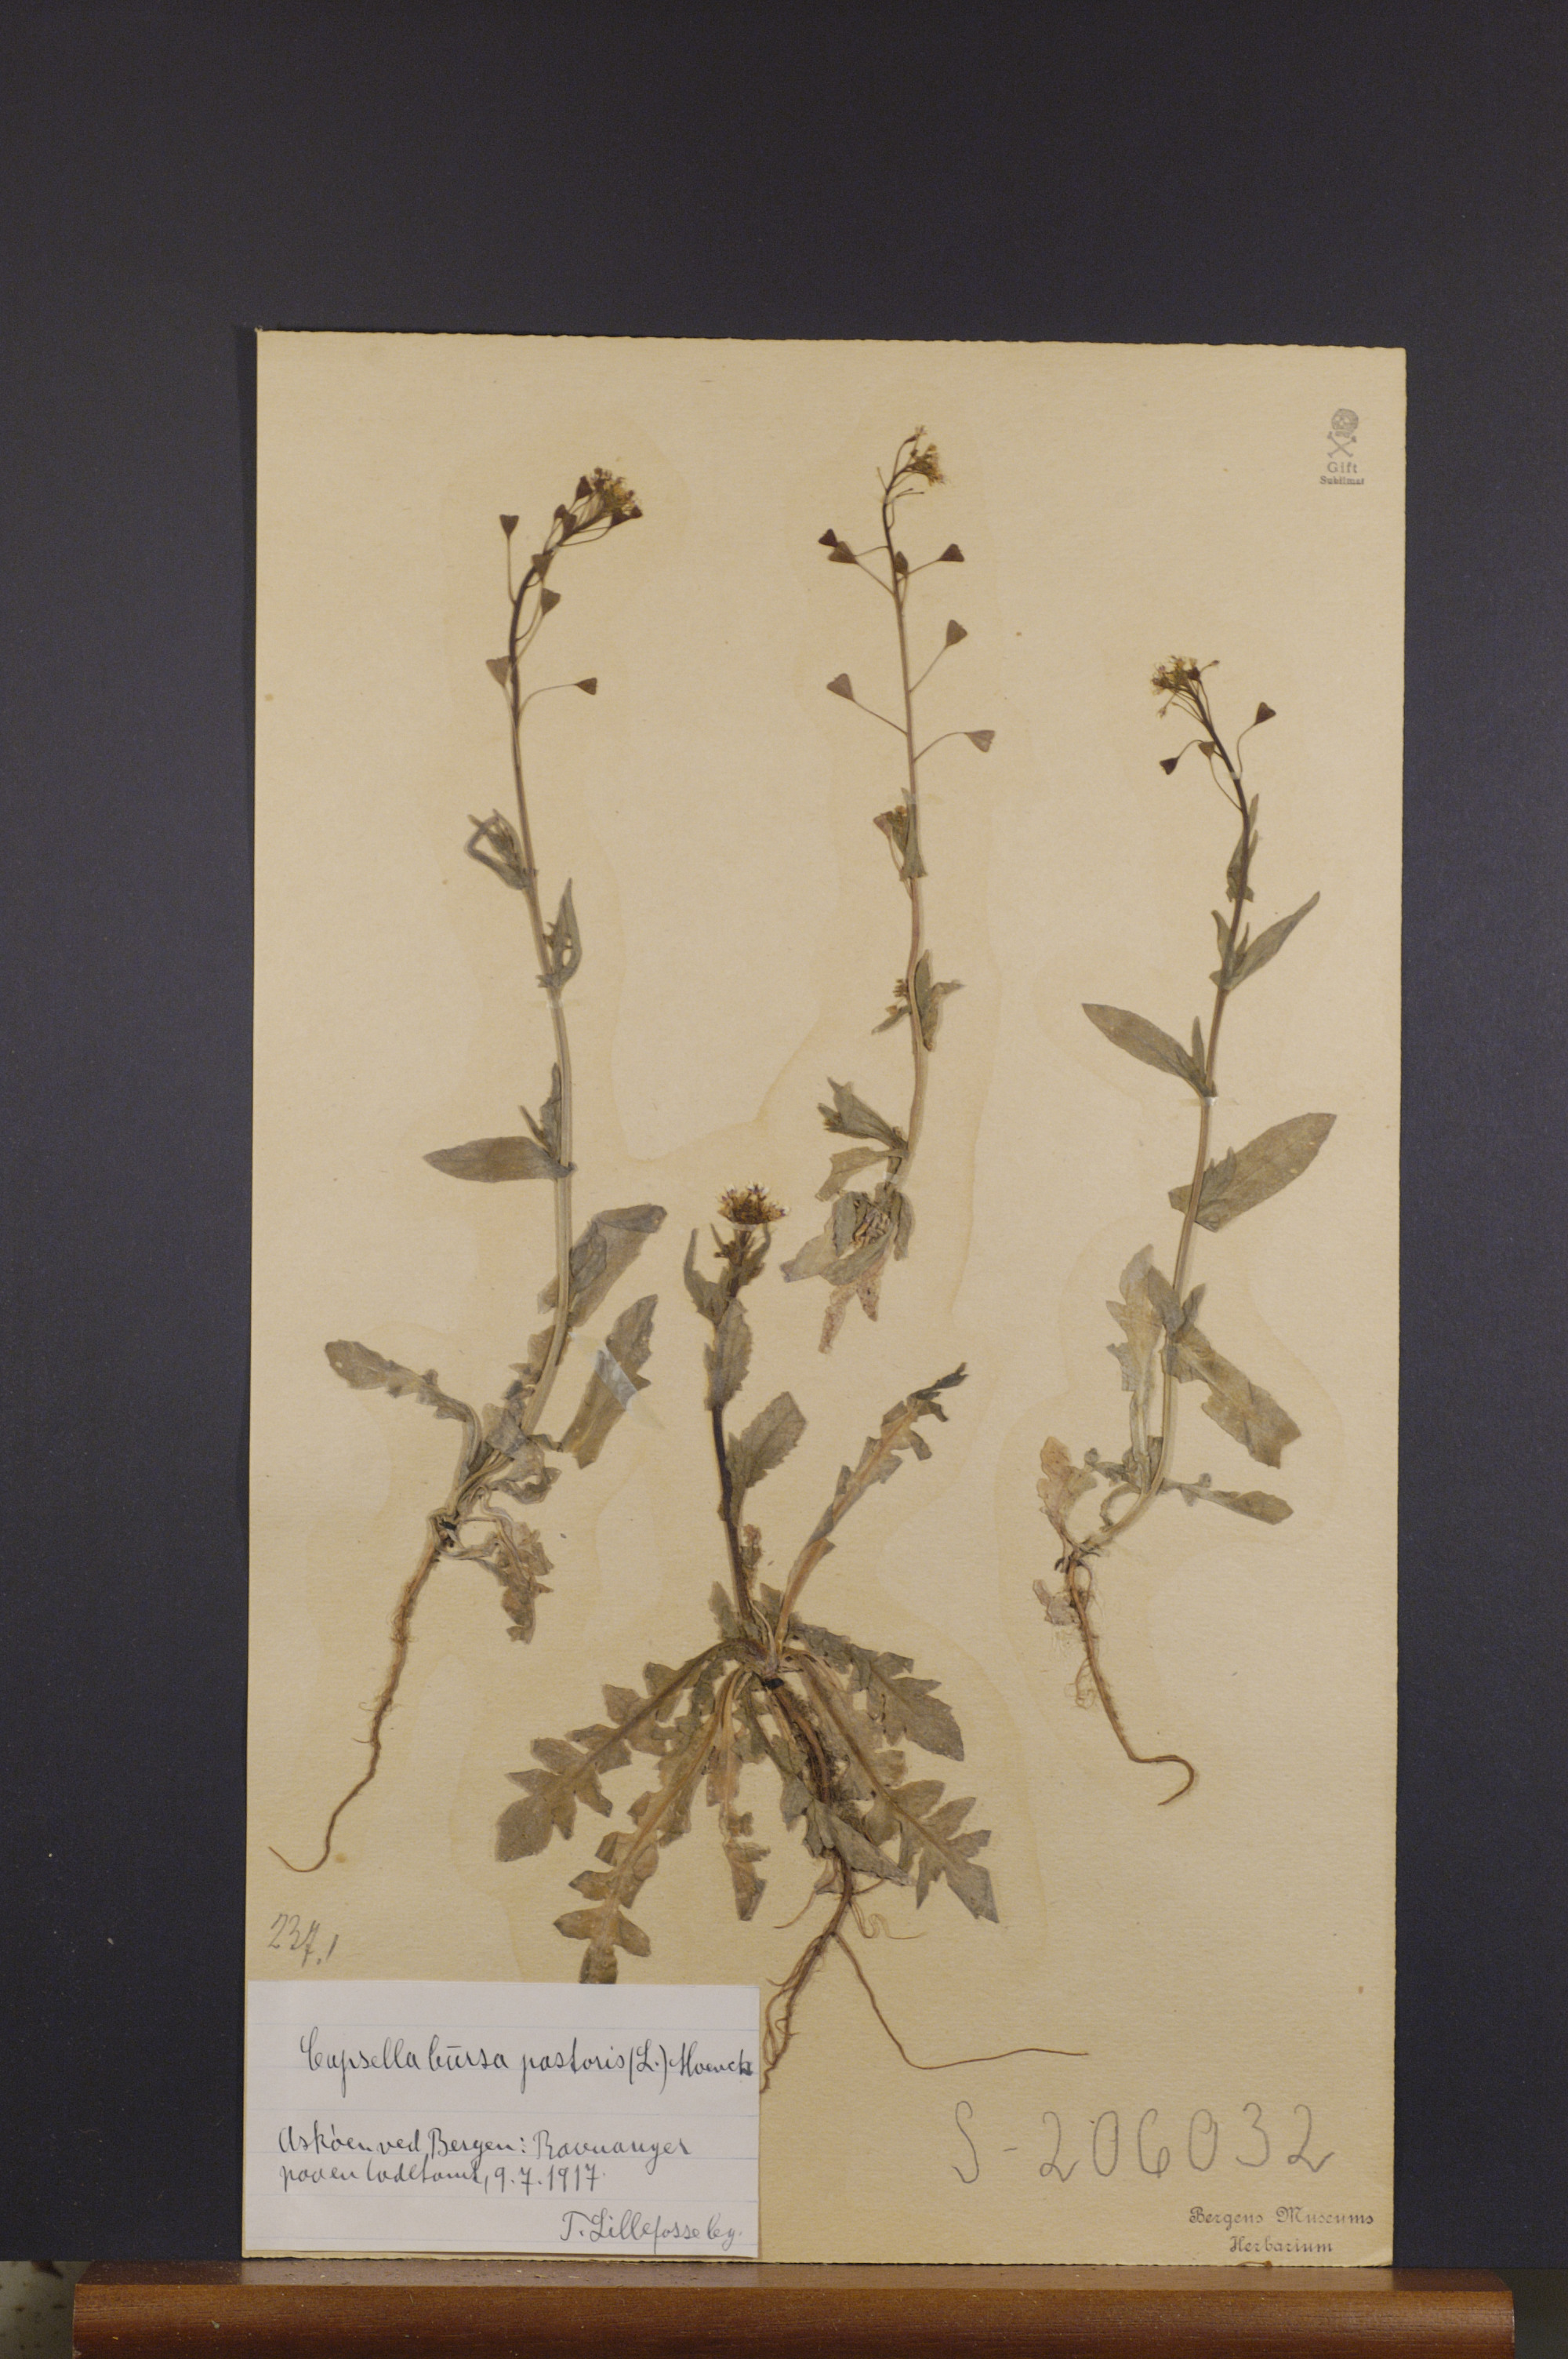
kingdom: Plantae
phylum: Tracheophyta
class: Magnoliopsida
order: Brassicales
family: Brassicaceae
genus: Capsella
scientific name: Capsella bursa-pastoris
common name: Shepherd's purse
